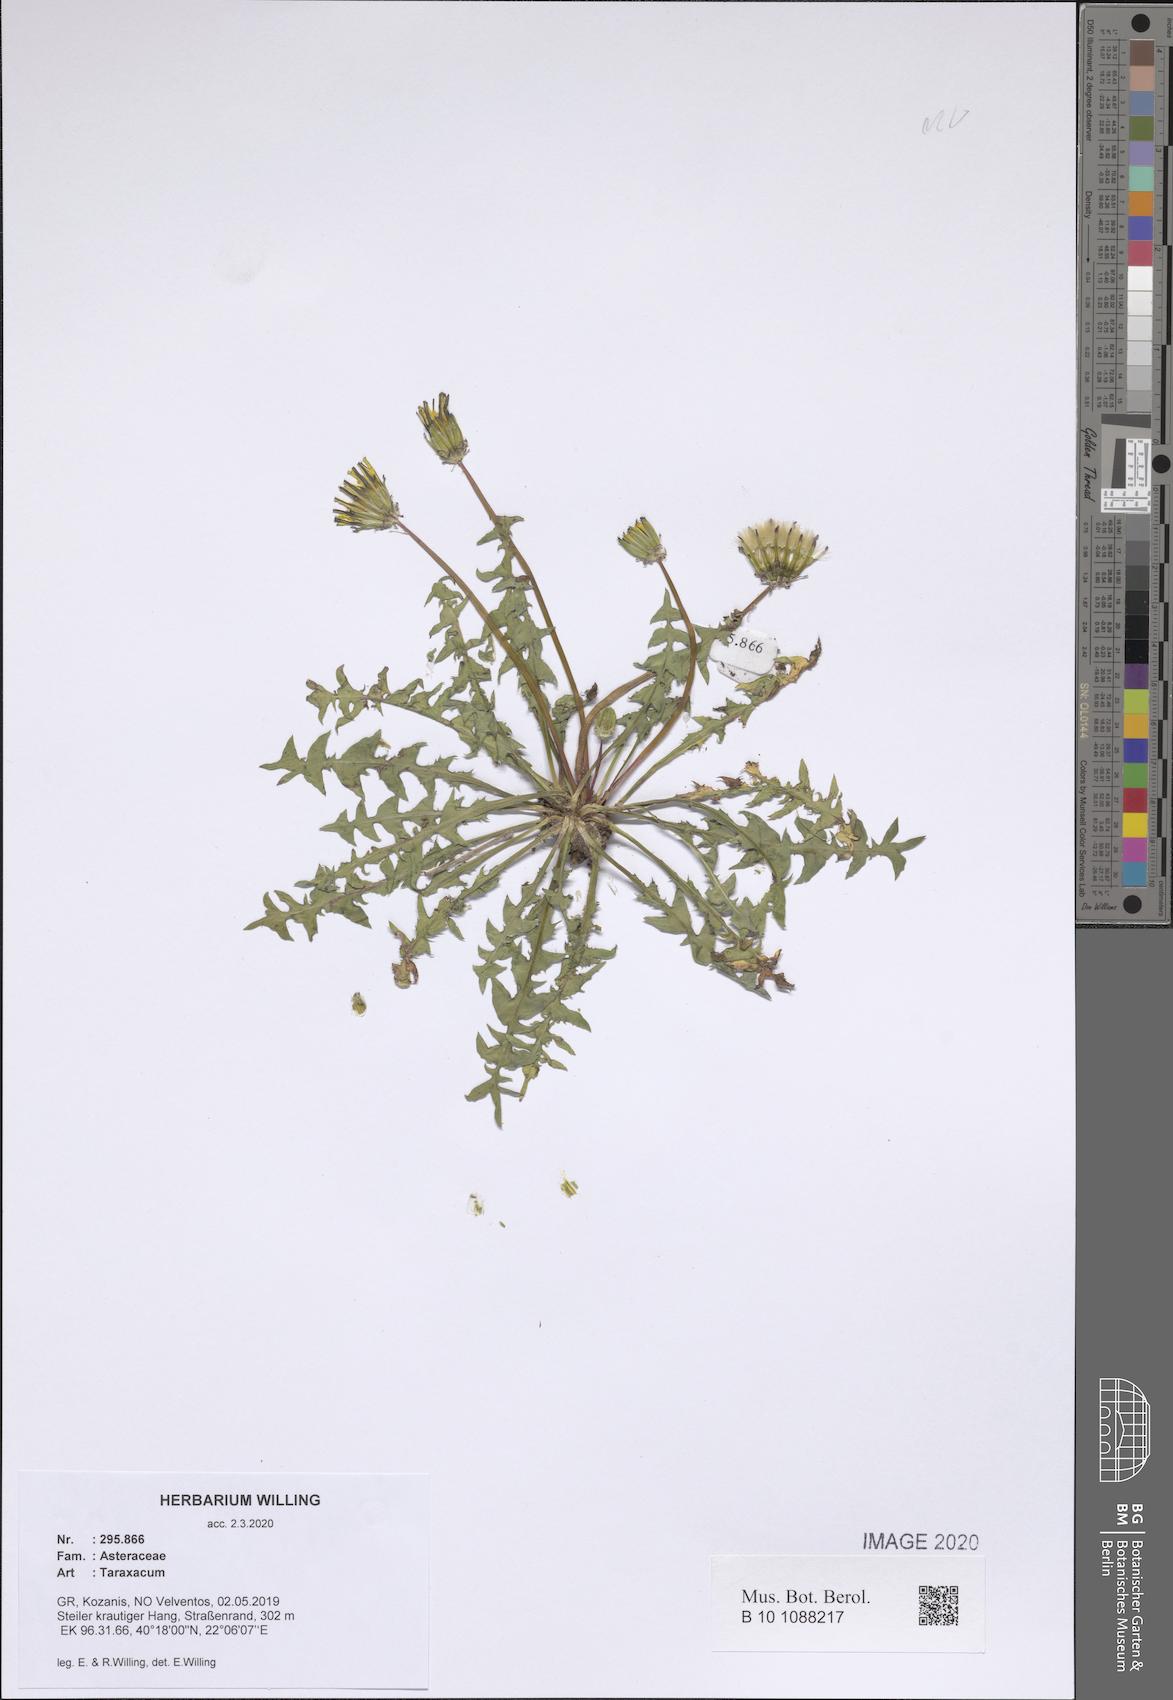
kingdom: Plantae
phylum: Tracheophyta
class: Magnoliopsida
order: Asterales
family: Asteraceae
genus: Taraxacum
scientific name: Taraxacum
